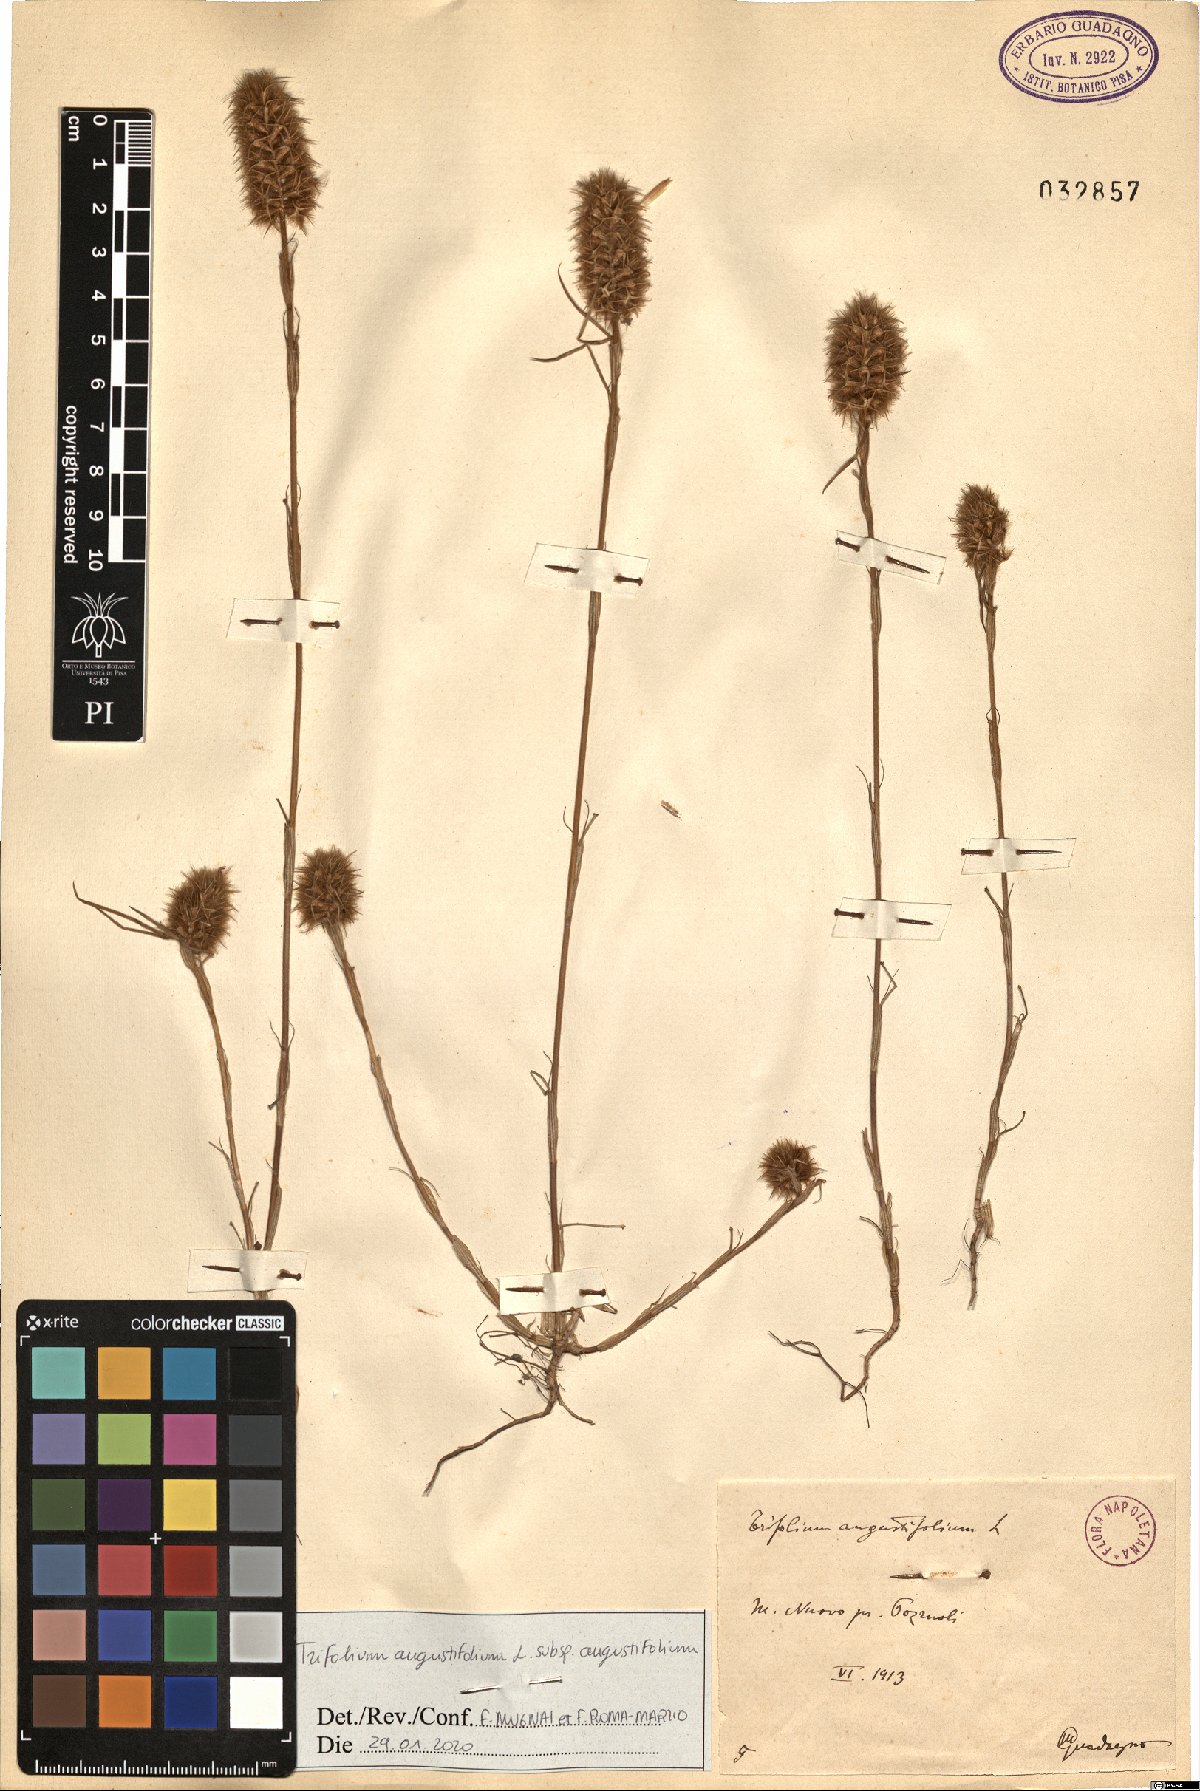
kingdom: Plantae
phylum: Tracheophyta
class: Magnoliopsida
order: Fabales
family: Fabaceae
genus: Trifolium
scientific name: Trifolium angustifolium
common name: Narrow clover
